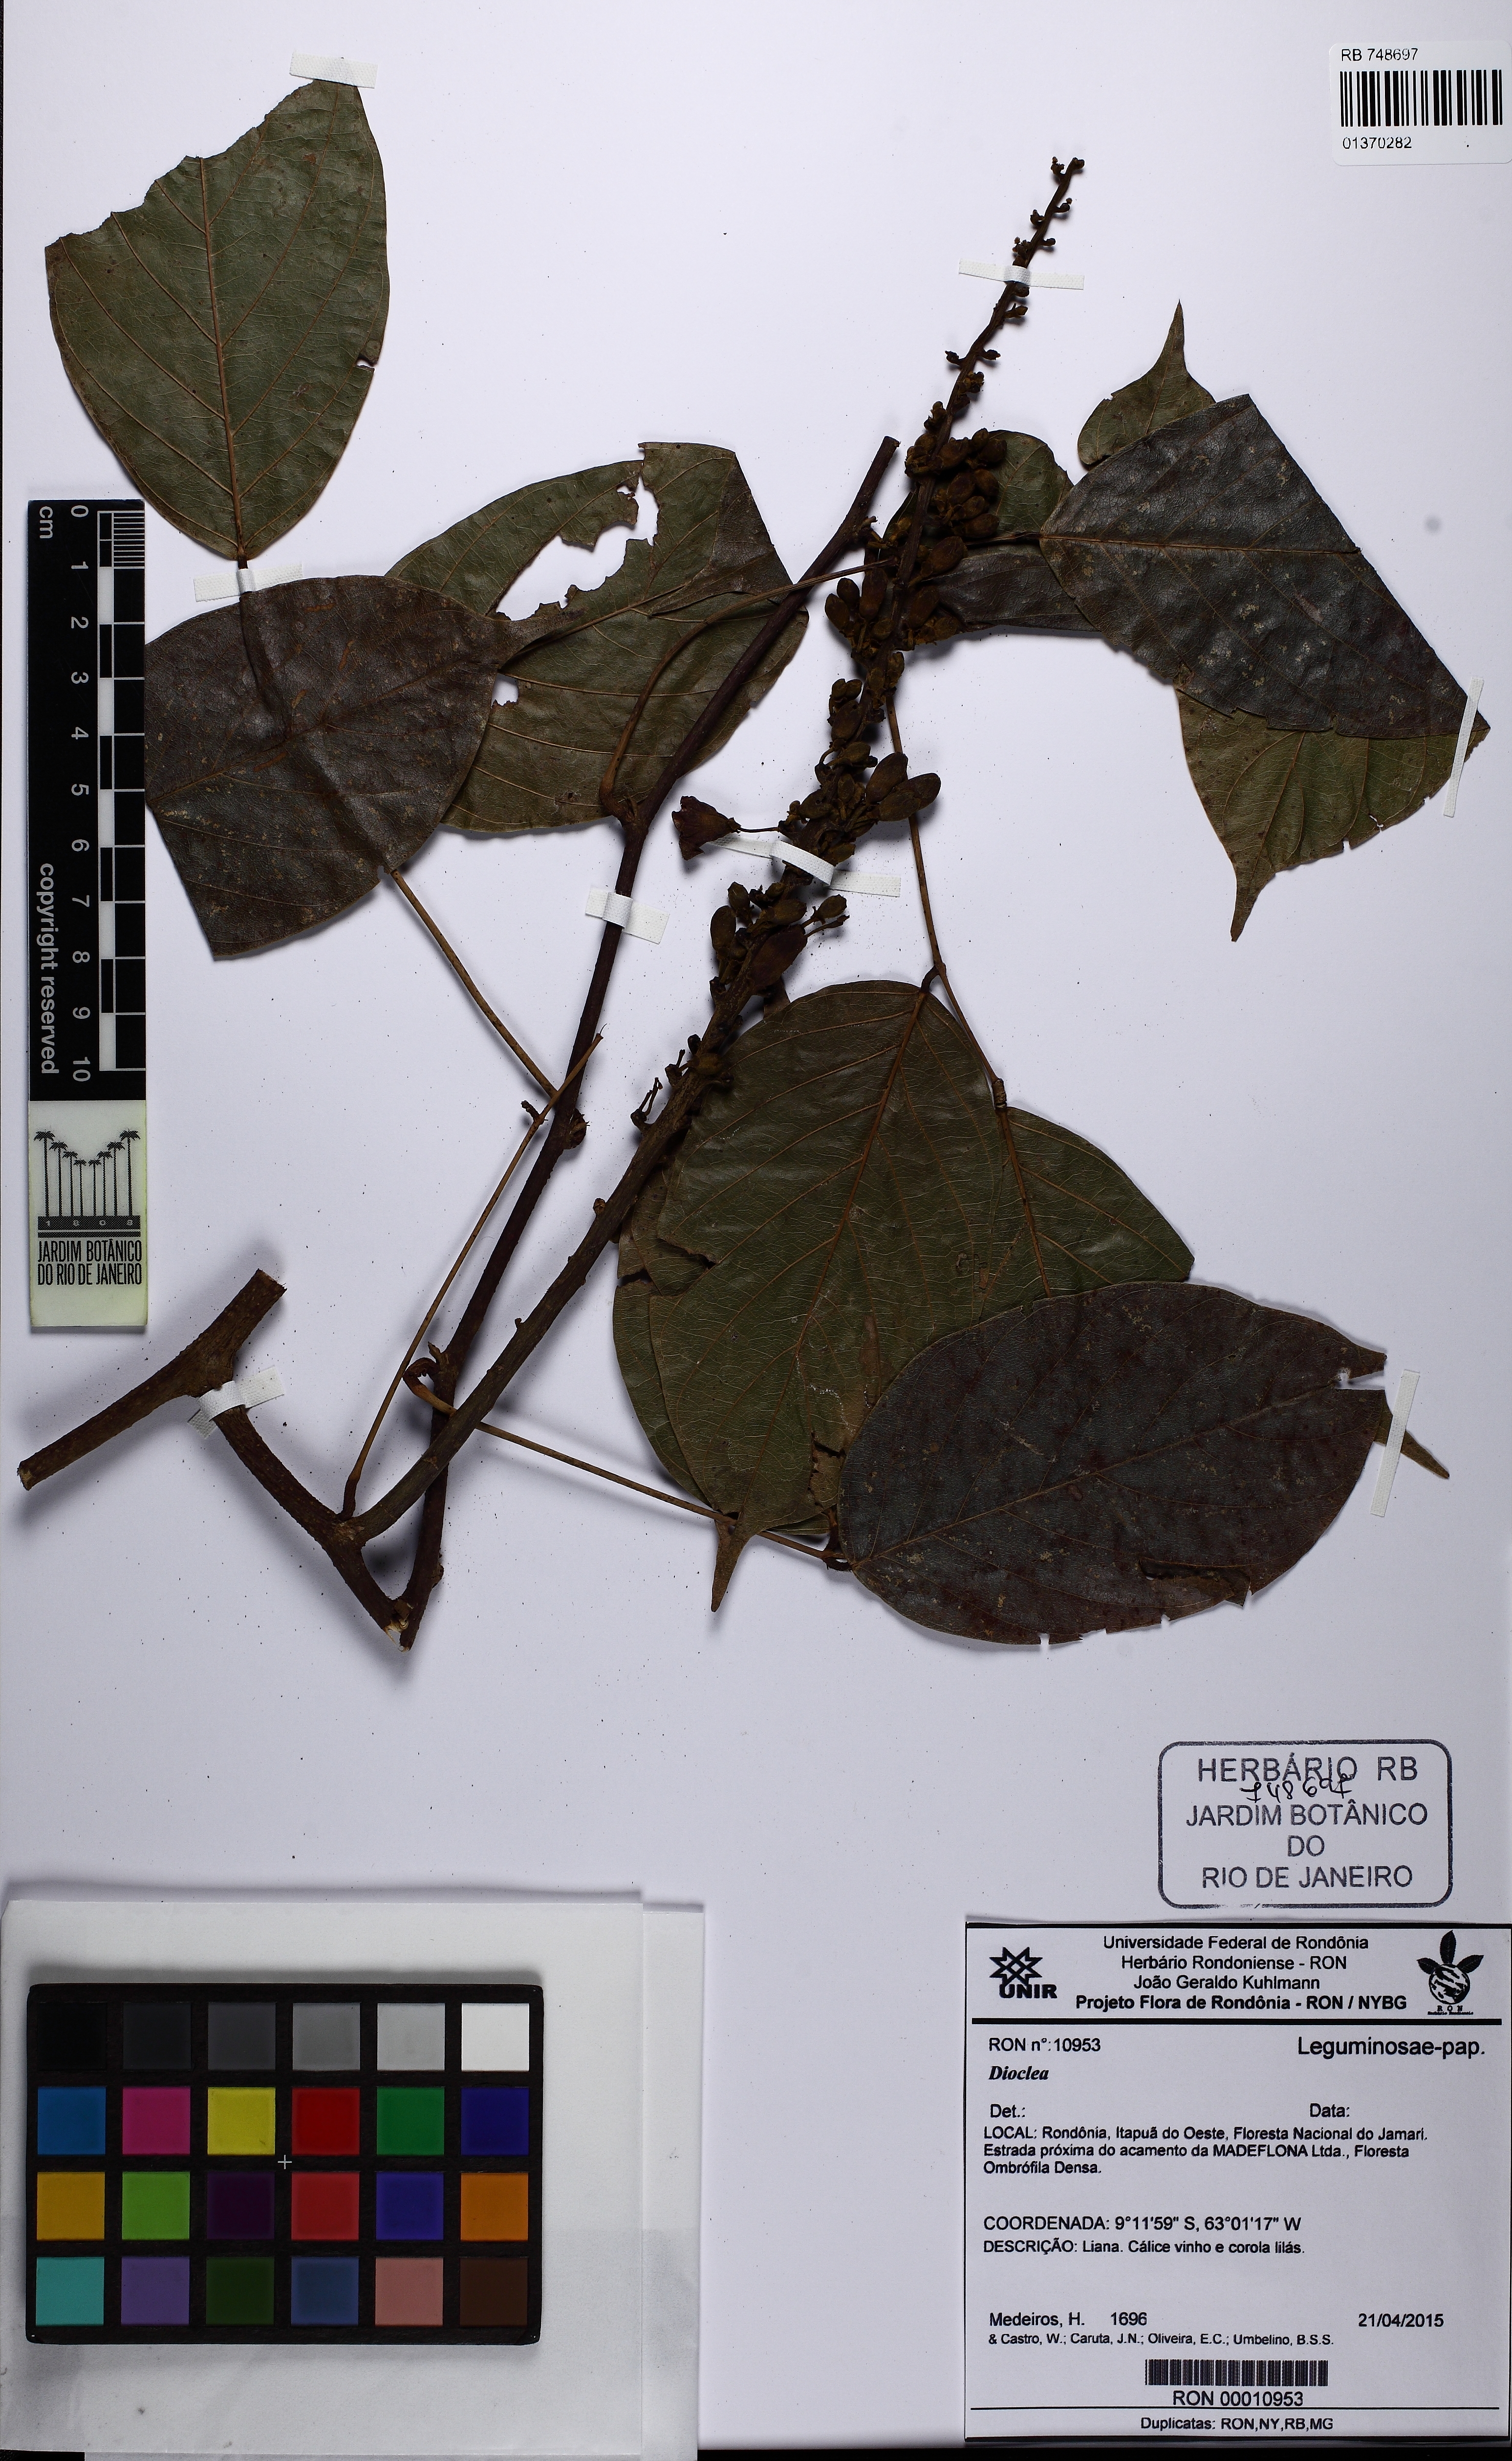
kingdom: Plantae
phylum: Tracheophyta
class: Magnoliopsida
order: Fabales
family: Fabaceae
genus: Dioclea
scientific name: Dioclea
